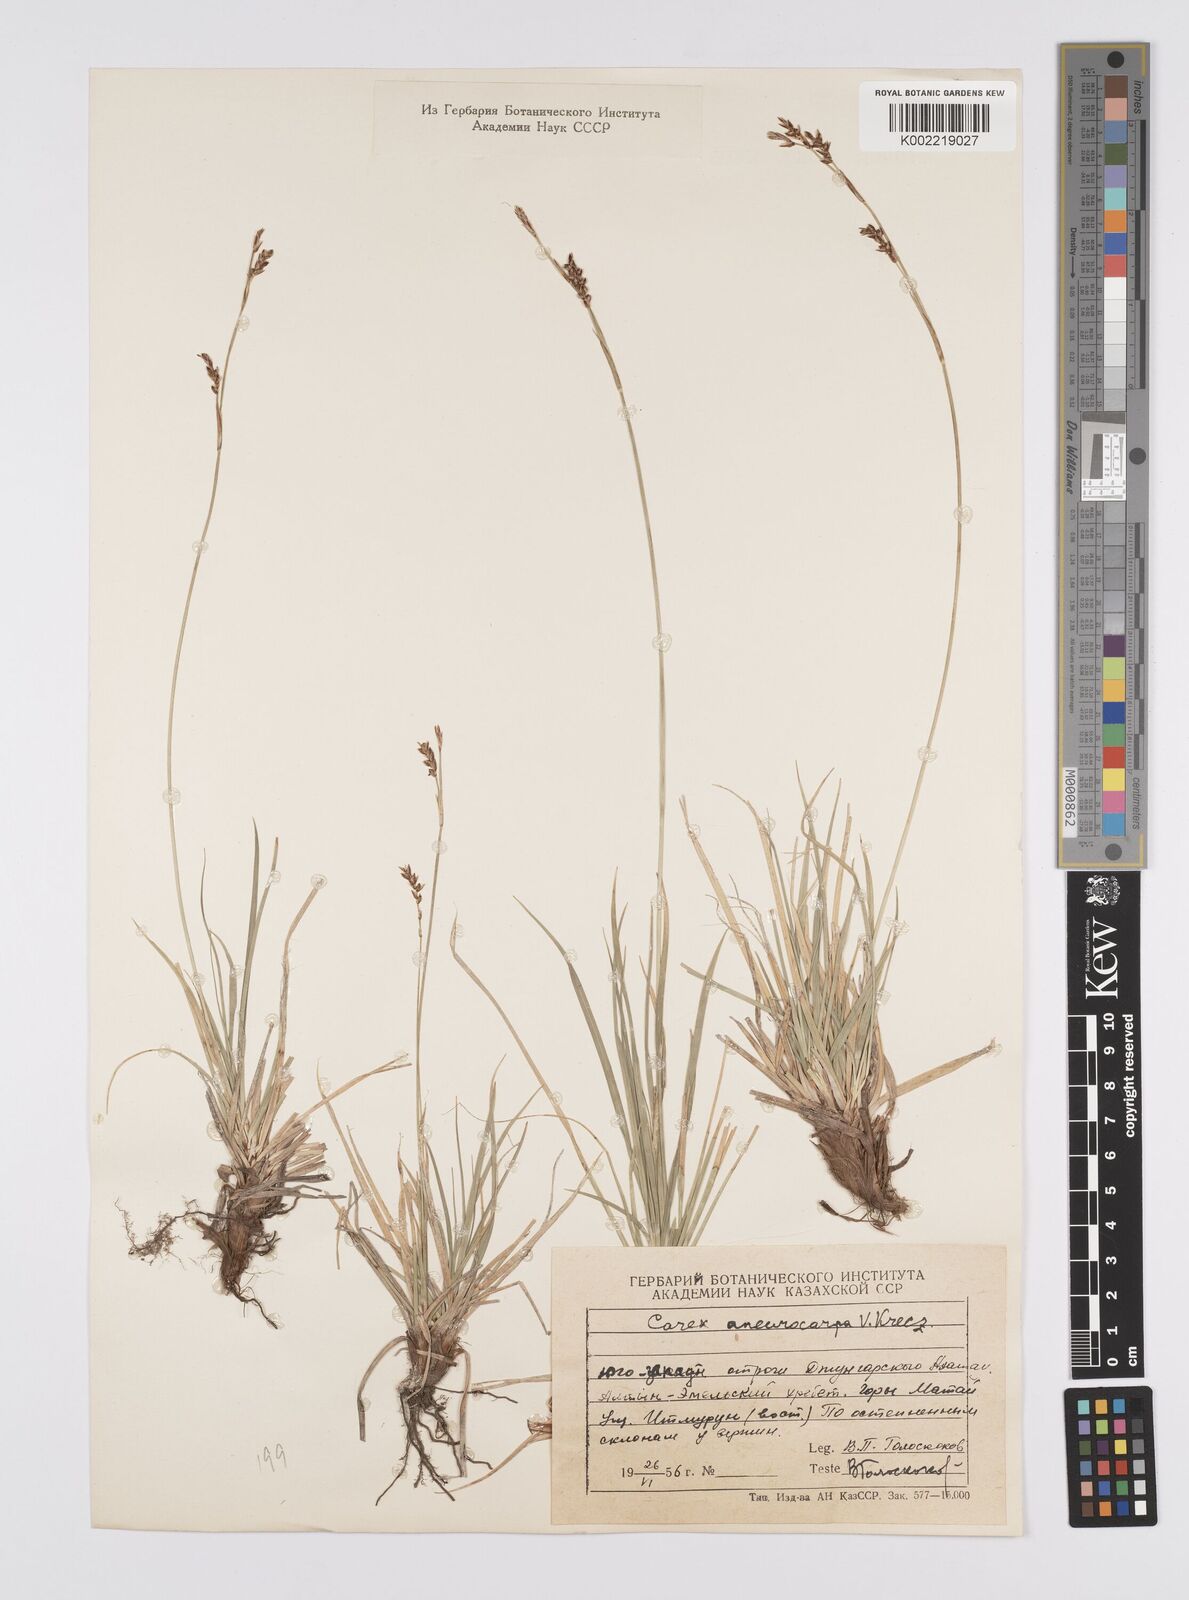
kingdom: Plantae
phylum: Tracheophyta
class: Liliopsida
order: Poales
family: Cyperaceae
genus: Carex
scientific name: Carex pediformis
